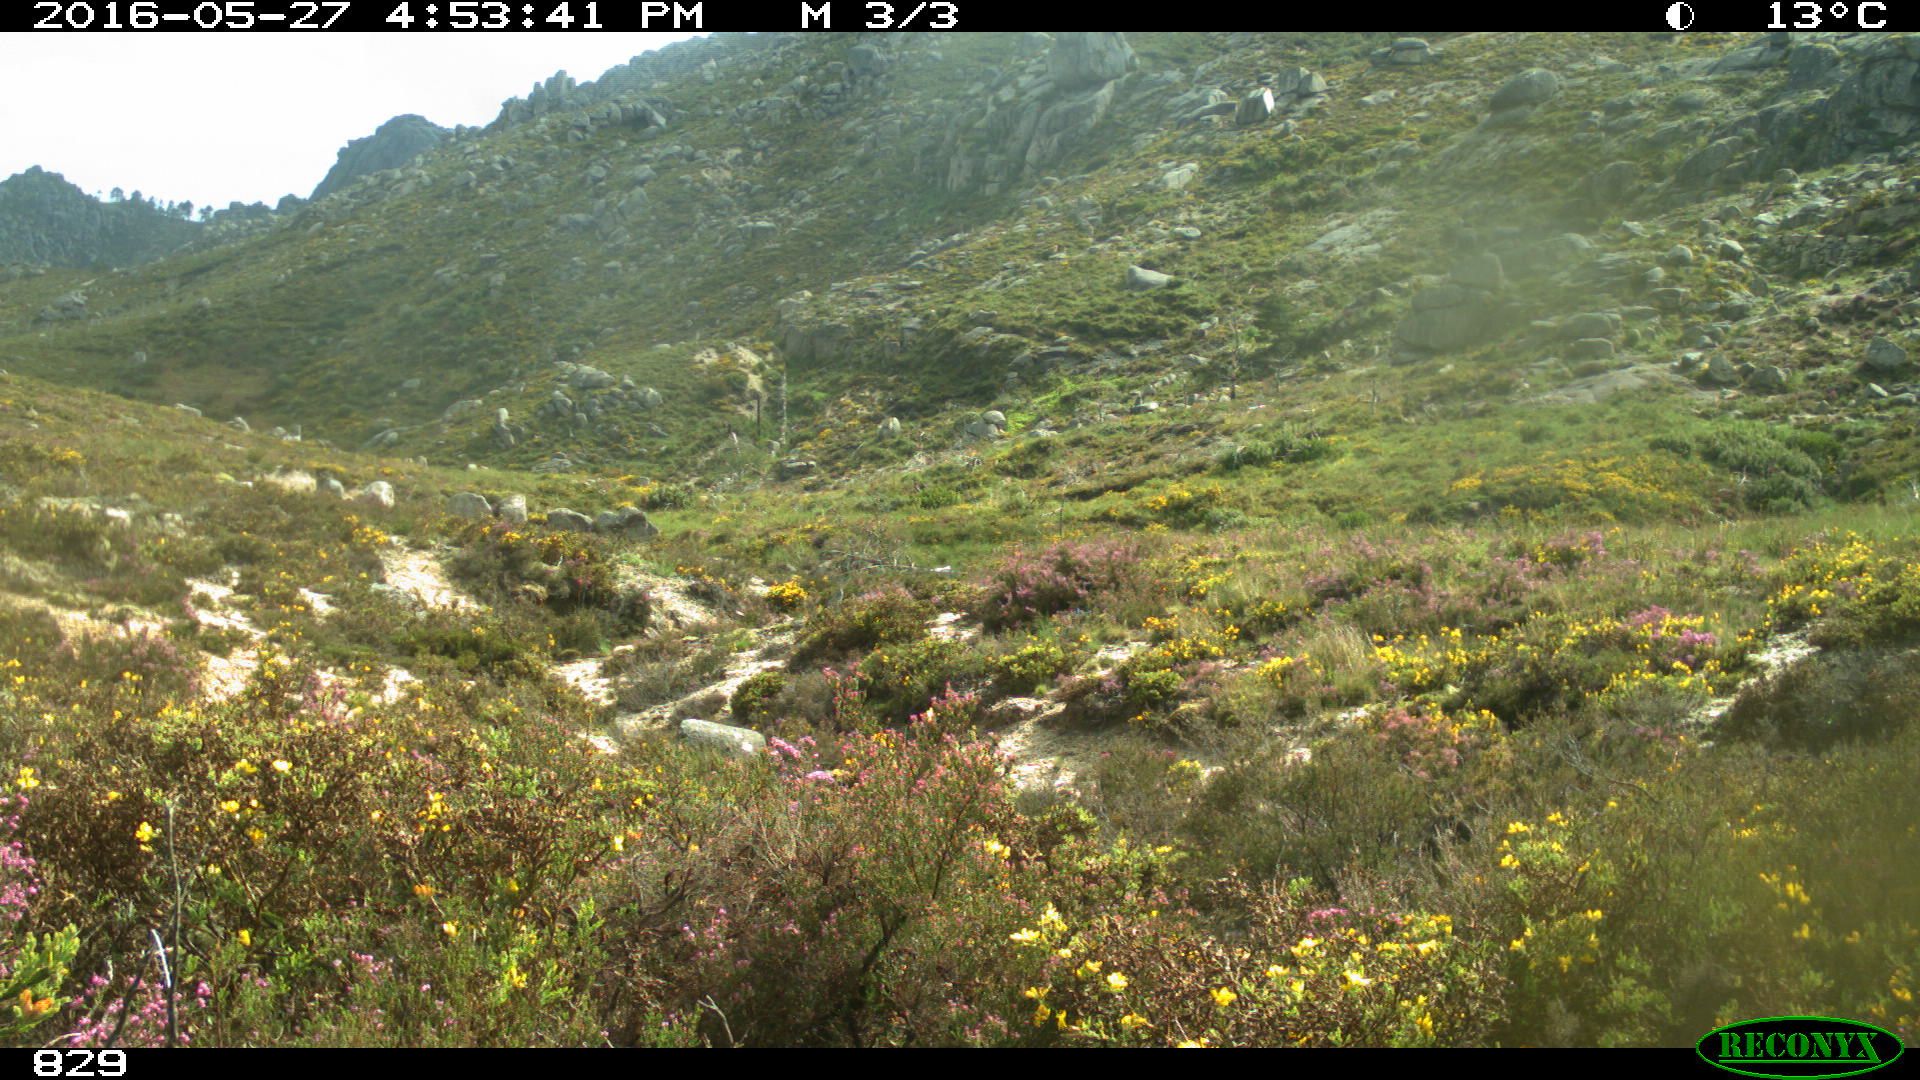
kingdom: Animalia
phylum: Chordata
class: Mammalia
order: Perissodactyla
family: Equidae
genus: Equus
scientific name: Equus caballus
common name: Horse
